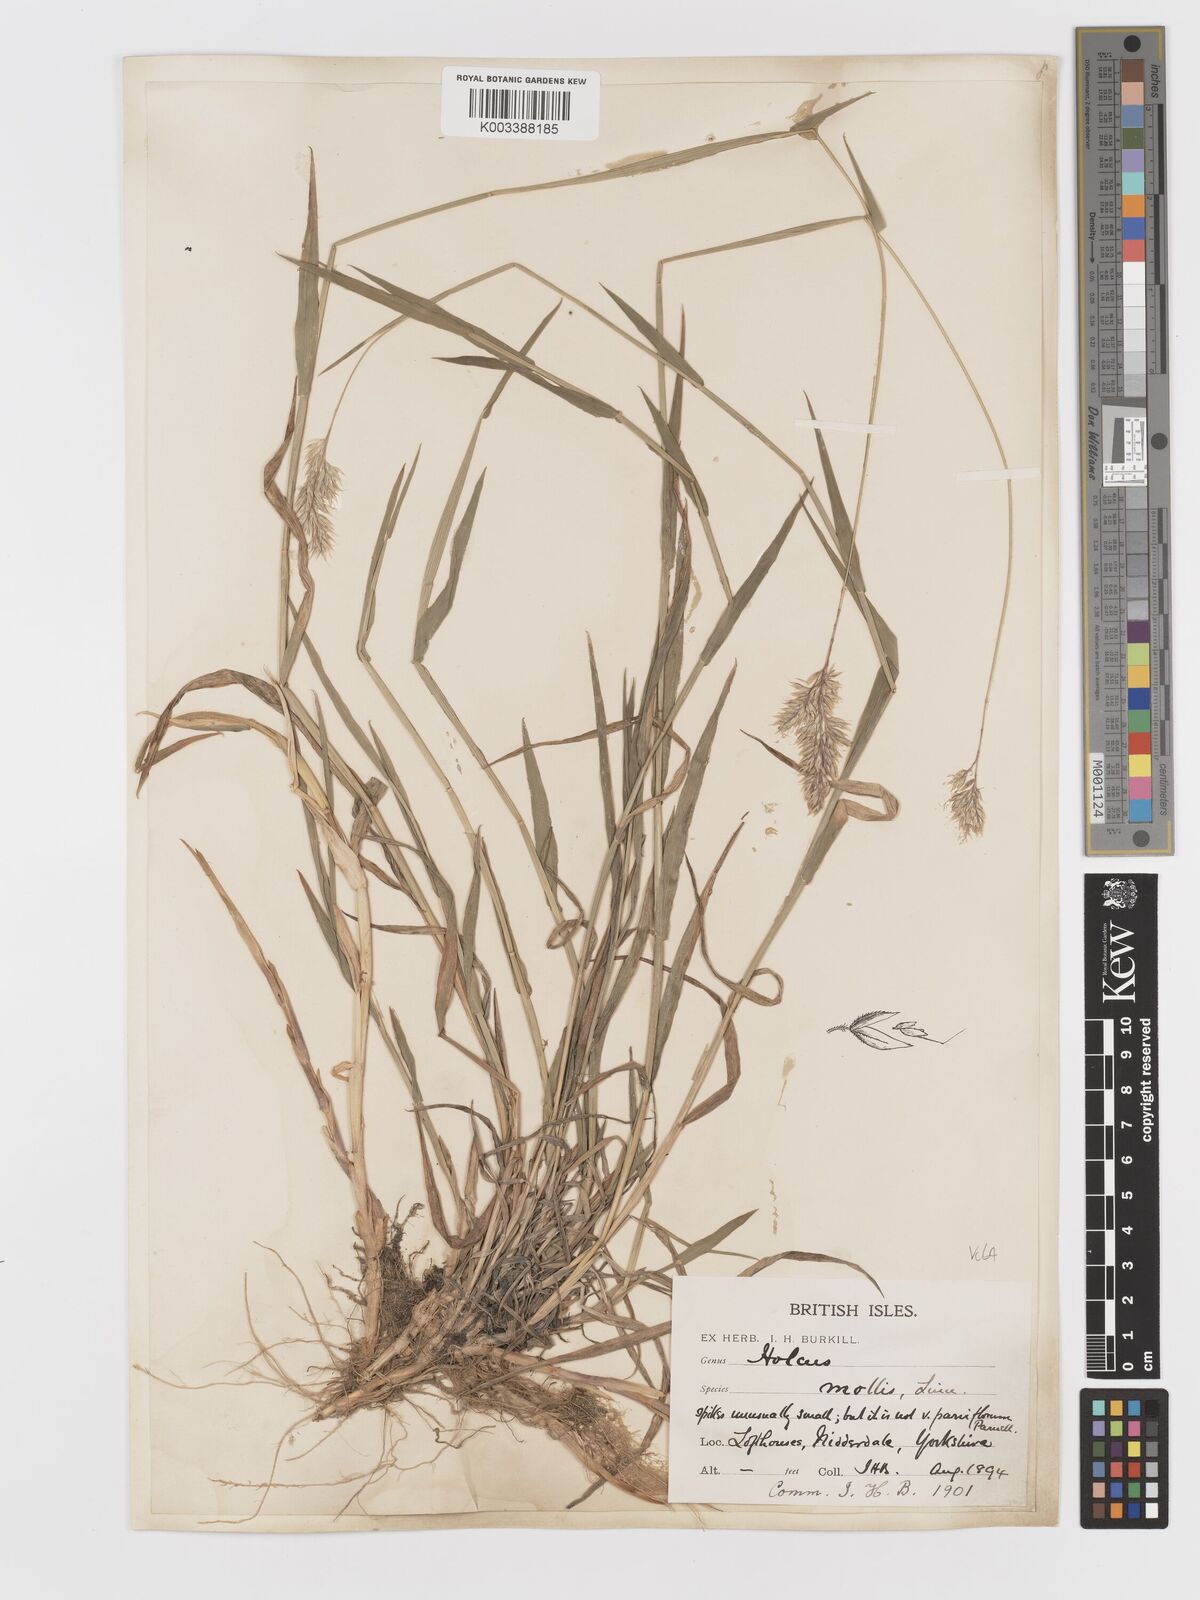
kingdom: Plantae
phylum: Tracheophyta
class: Liliopsida
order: Poales
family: Poaceae
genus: Holcus
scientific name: Holcus mollis
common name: Creeping velvetgrass
